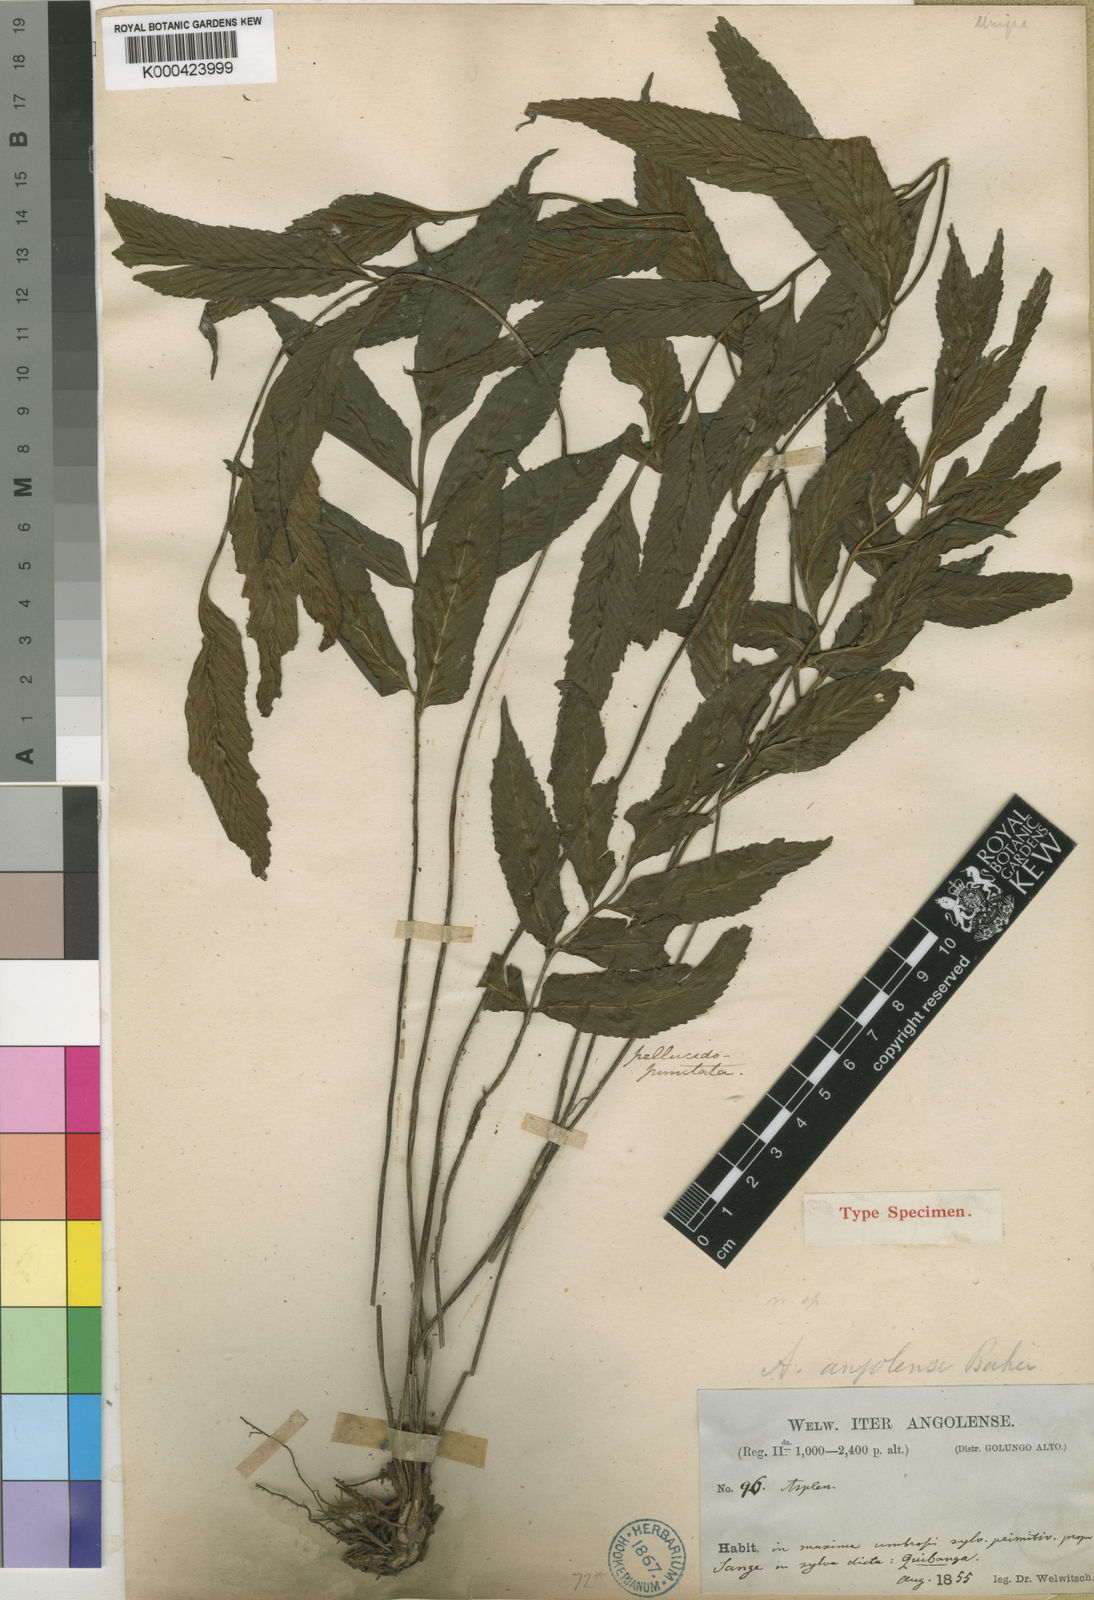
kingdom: Plantae
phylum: Tracheophyta
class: Polypodiopsida
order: Polypodiales
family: Aspleniaceae
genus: Asplenium
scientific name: Asplenium angolense
